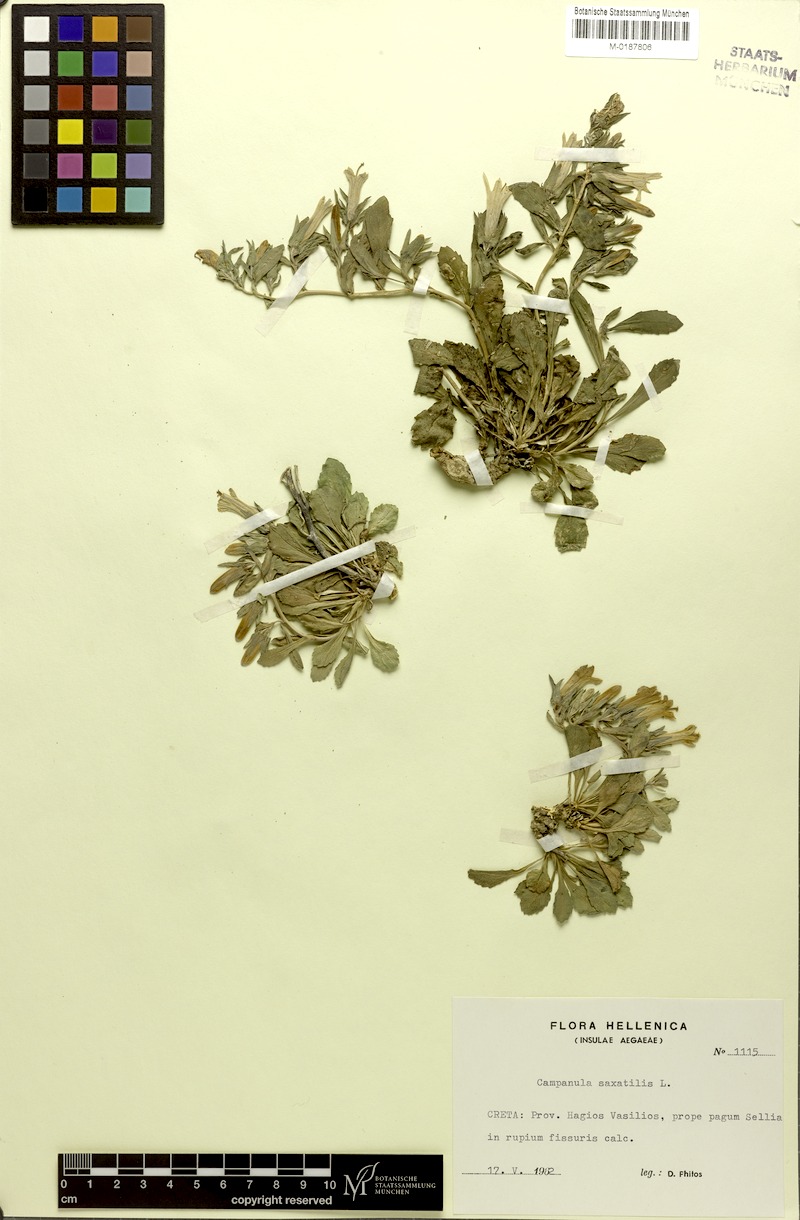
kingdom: Plantae
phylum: Tracheophyta
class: Magnoliopsida
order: Asterales
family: Campanulaceae
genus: Campanula
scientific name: Campanula saxatilis
